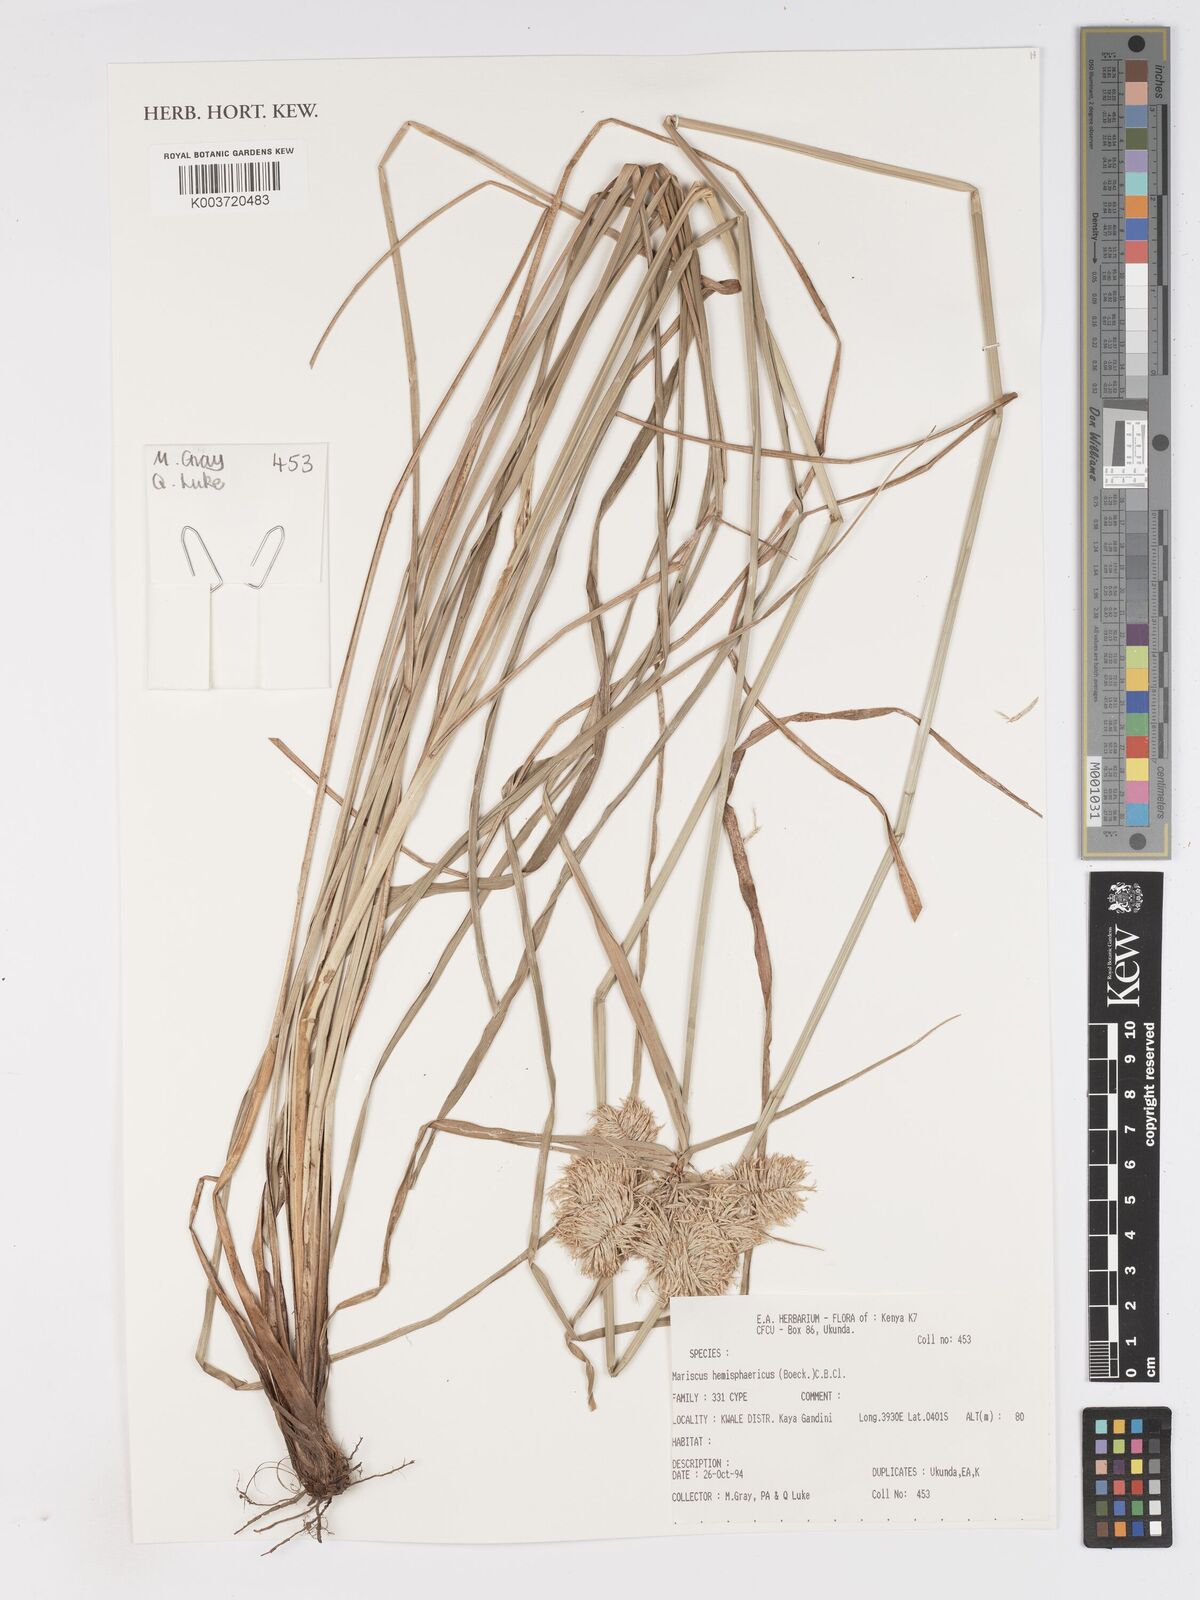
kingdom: Plantae
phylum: Tracheophyta
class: Liliopsida
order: Poales
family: Cyperaceae
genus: Cyperus
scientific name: Cyperus hemisphaericus
